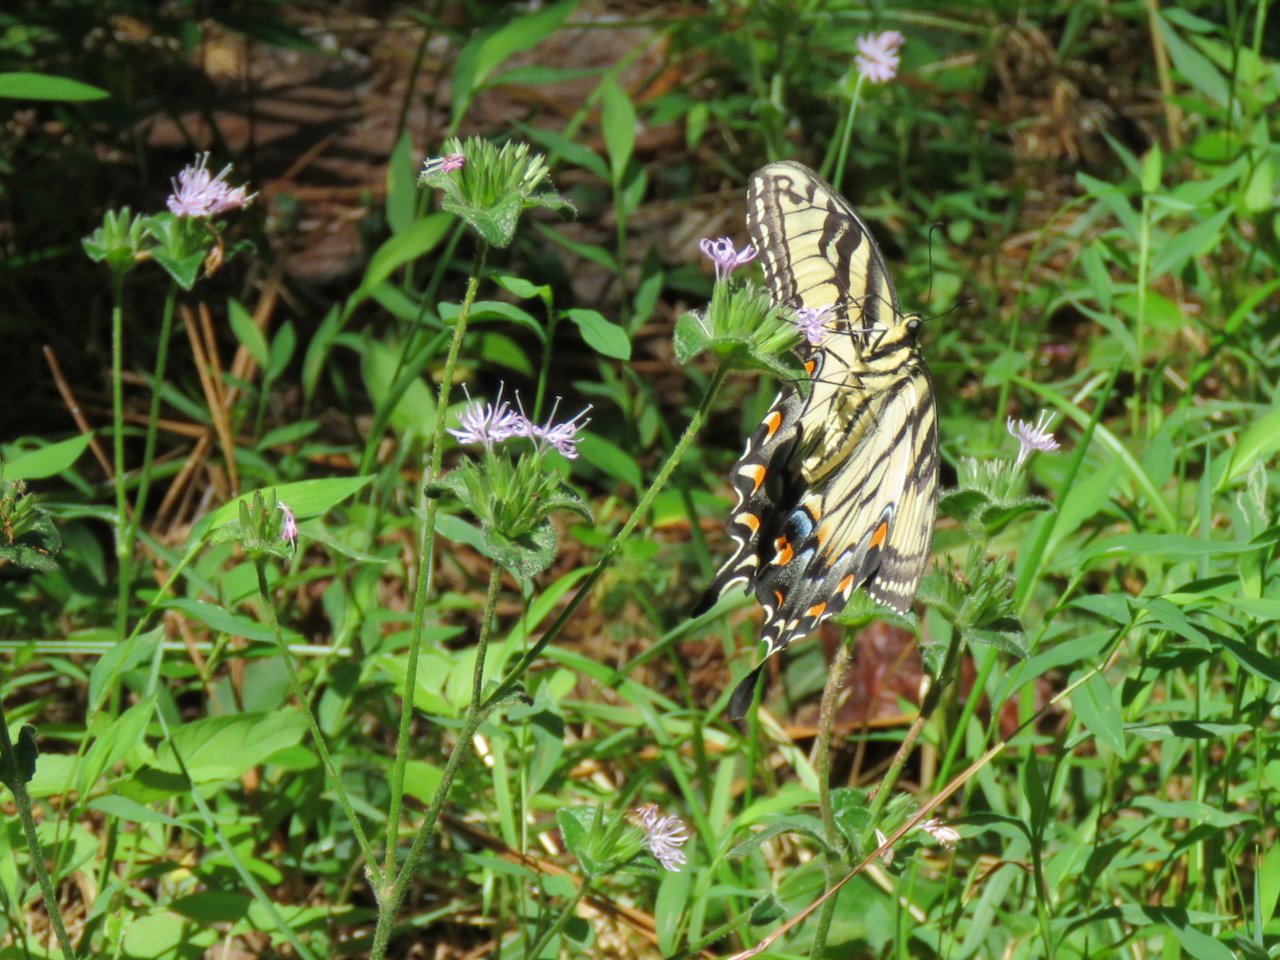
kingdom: Animalia
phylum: Arthropoda
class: Insecta
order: Lepidoptera
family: Papilionidae
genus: Pterourus
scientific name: Pterourus glaucus
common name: Eastern Tiger Swallowtail
